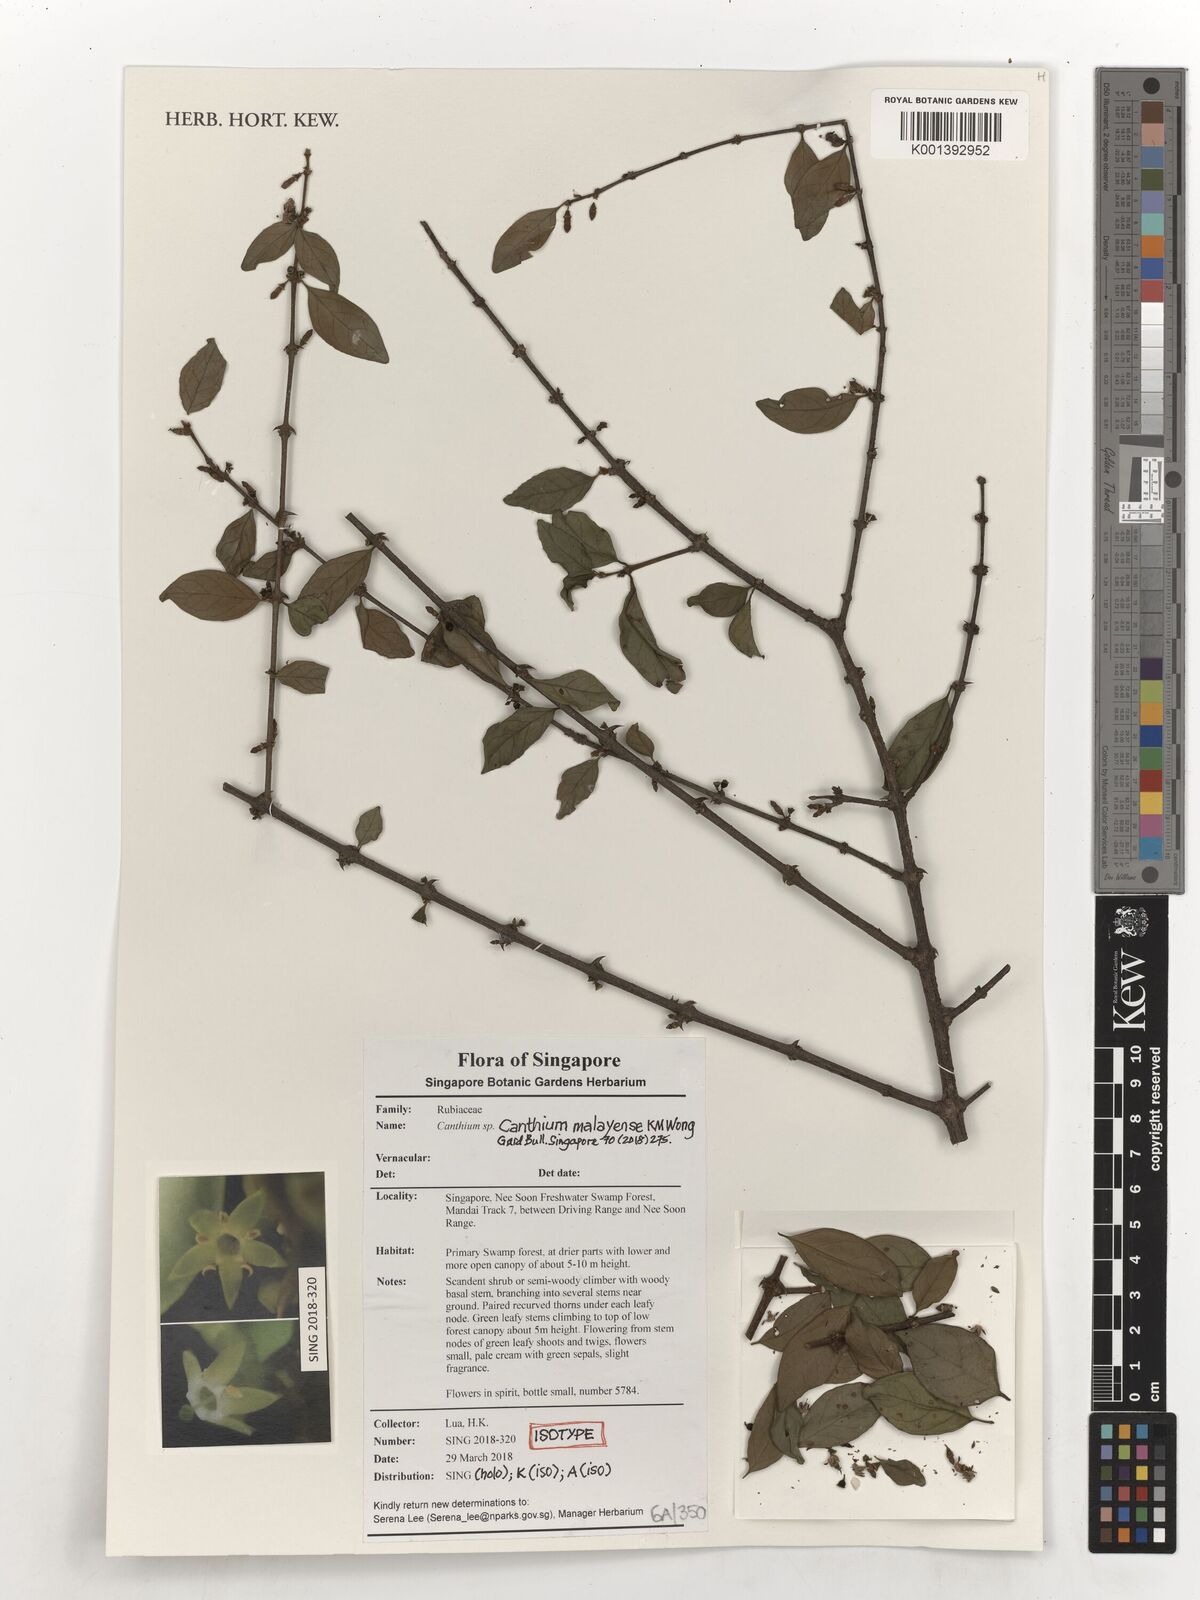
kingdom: Plantae
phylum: Tracheophyta
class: Magnoliopsida
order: Gentianales
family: Rubiaceae
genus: Canthium
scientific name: Canthium malayense
